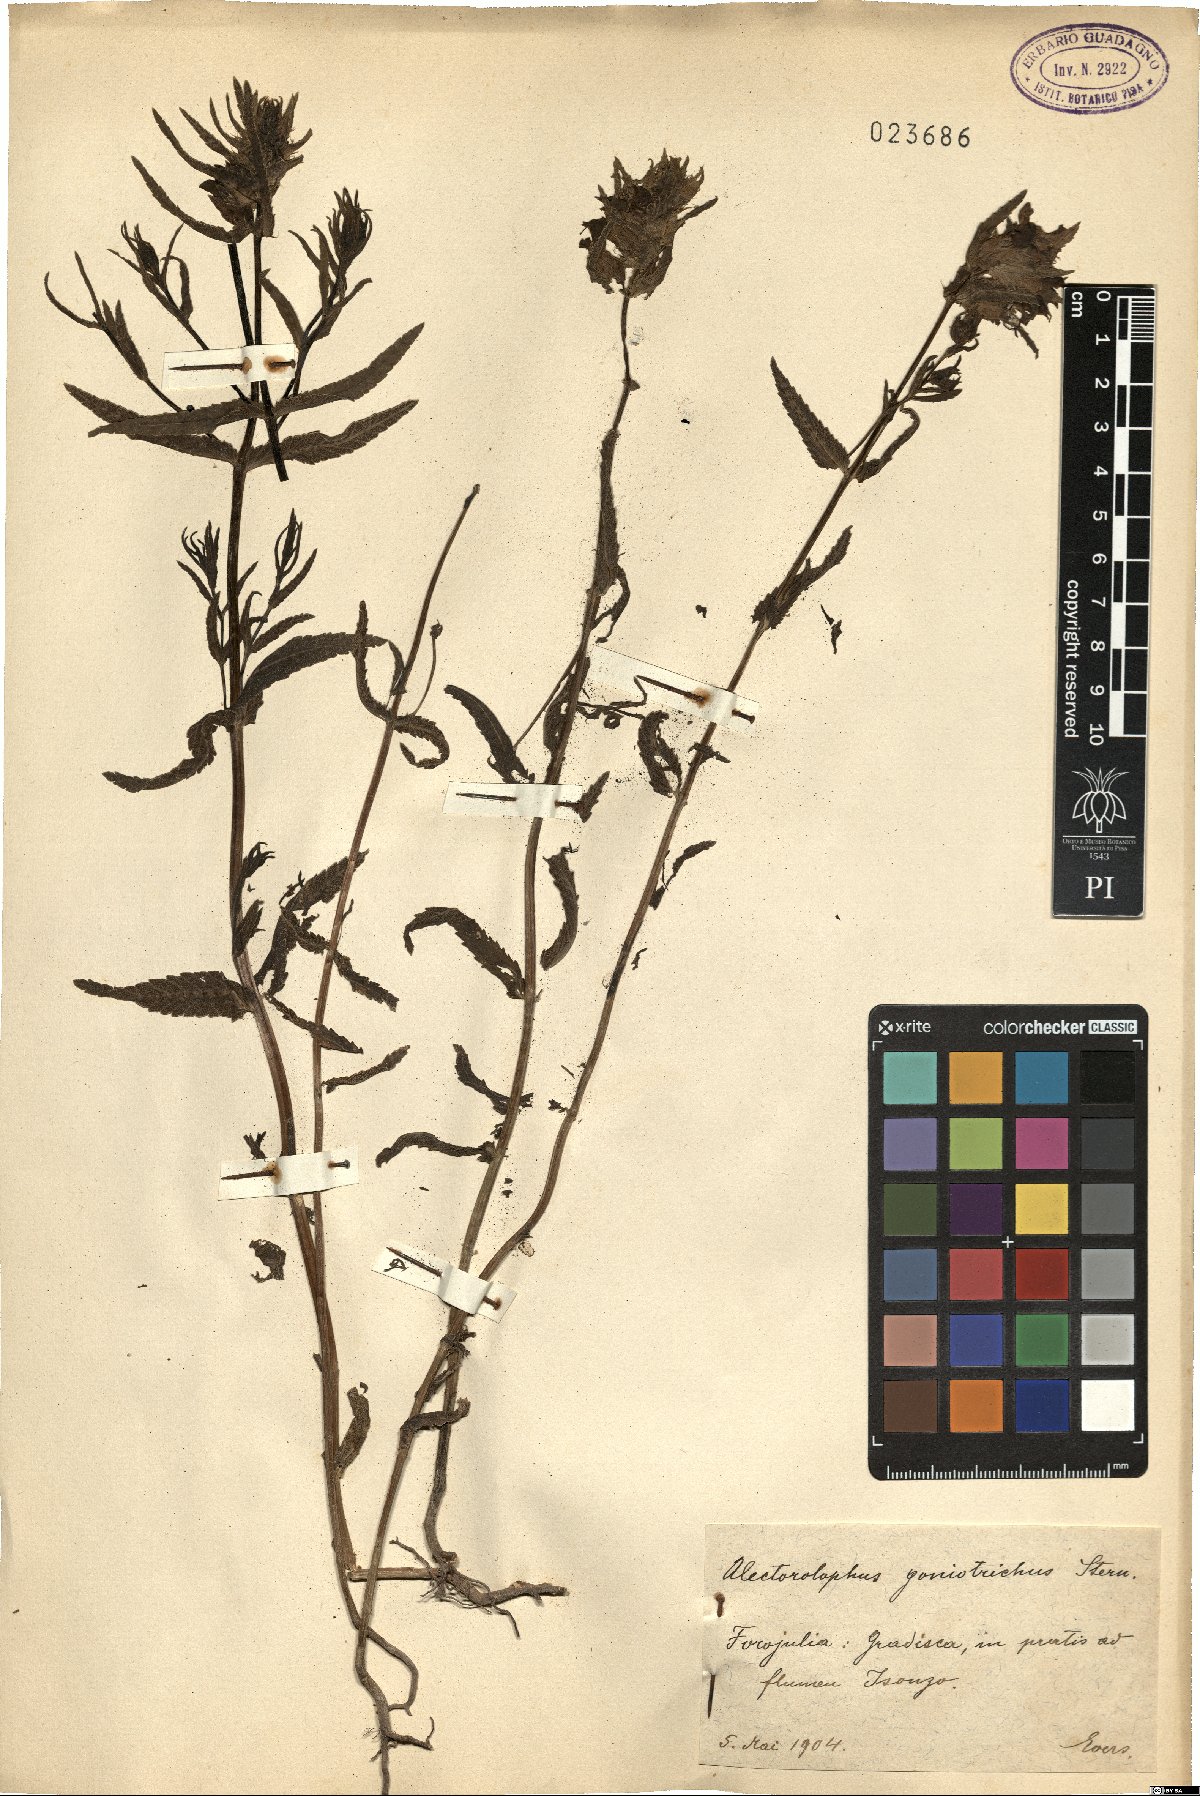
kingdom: Plantae
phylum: Tracheophyta
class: Magnoliopsida
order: Lamiales
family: Orobanchaceae
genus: Rhinanthus
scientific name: Rhinanthus borbasii
